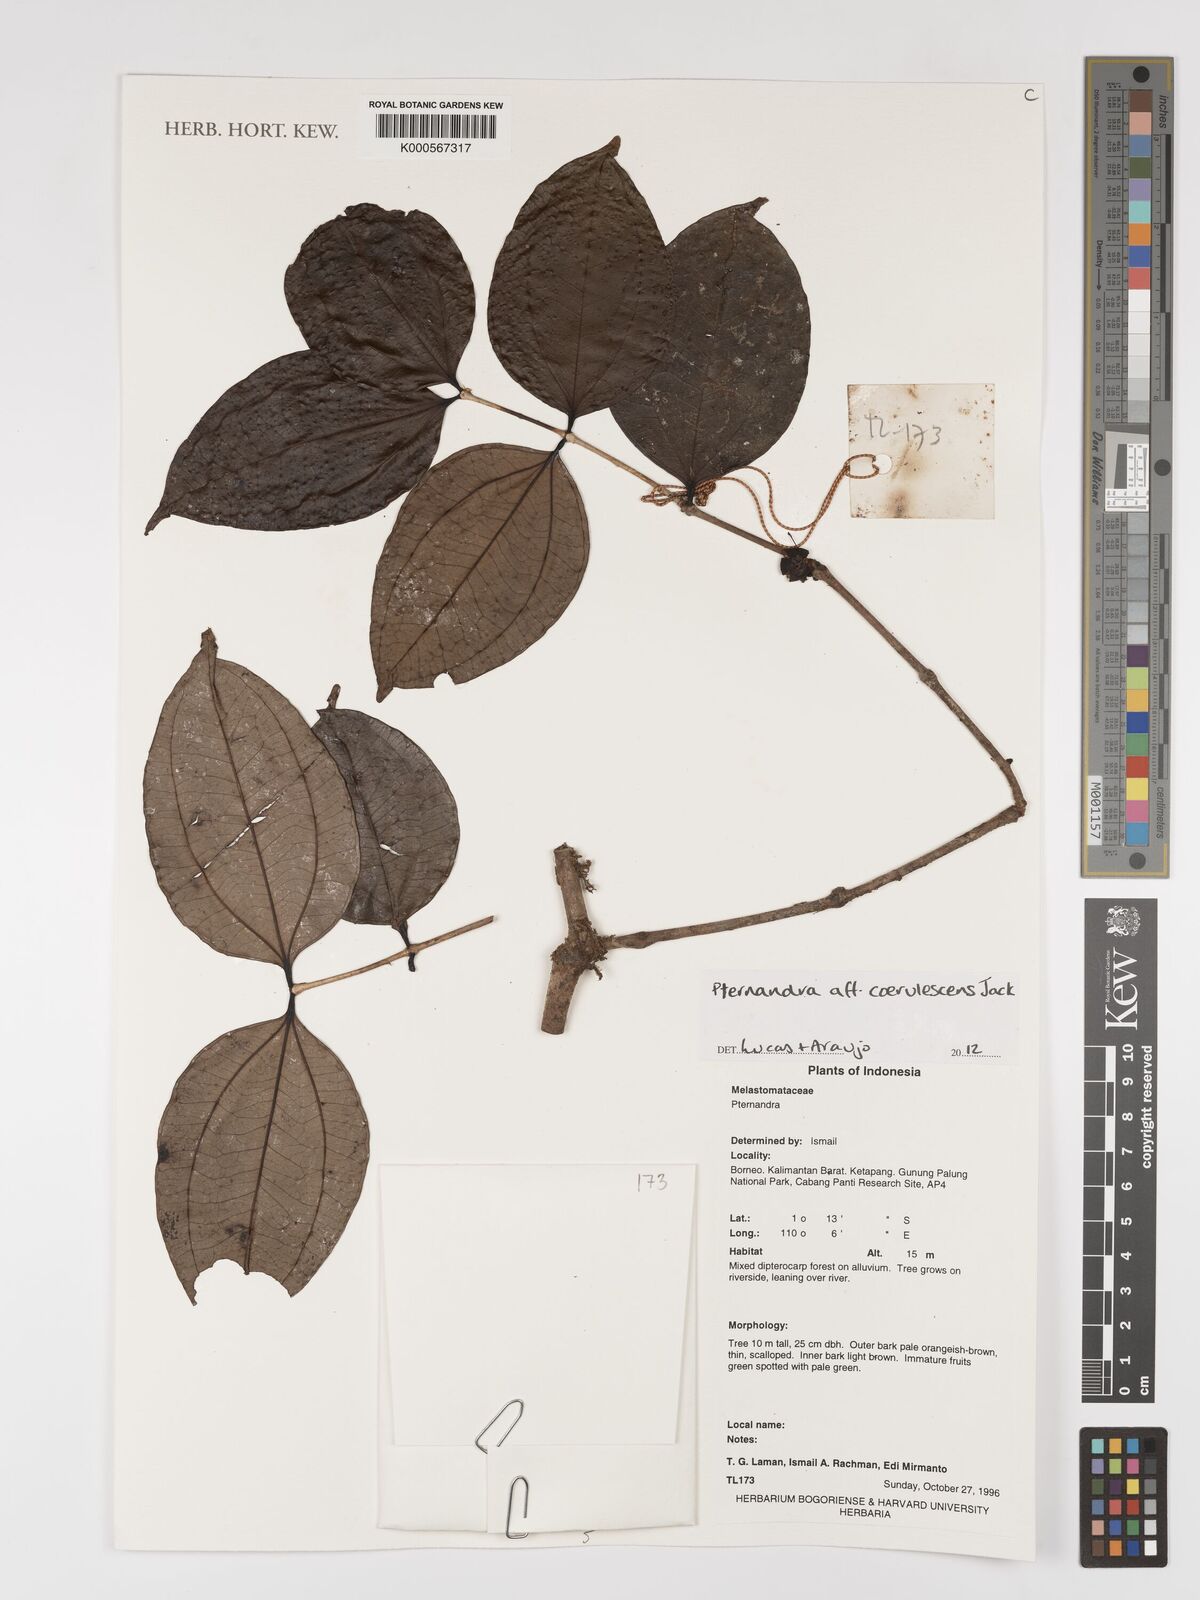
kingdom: Plantae
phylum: Tracheophyta
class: Magnoliopsida
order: Myrtales
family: Melastomataceae
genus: Pternandra
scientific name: Pternandra
